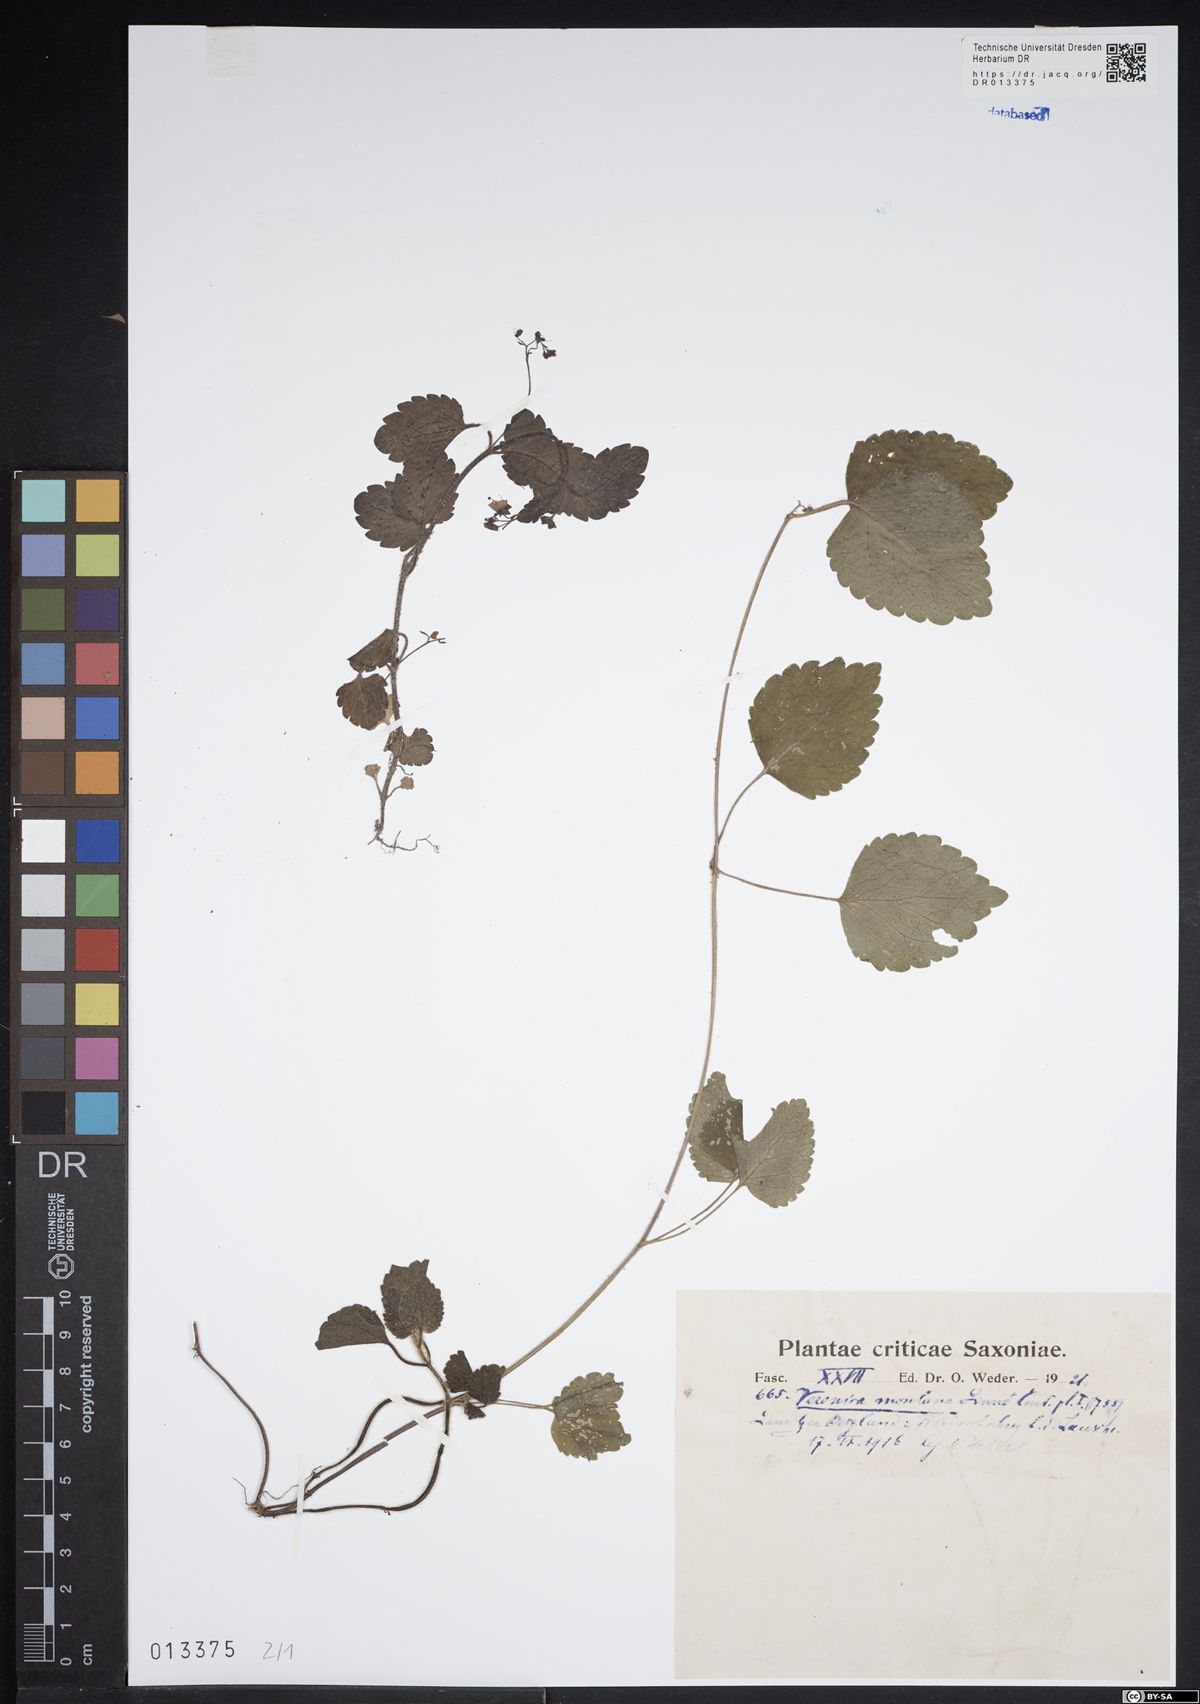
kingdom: Plantae
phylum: Tracheophyta
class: Magnoliopsida
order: Lamiales
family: Plantaginaceae
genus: Veronica
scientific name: Veronica montana
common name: Wood speedwell
